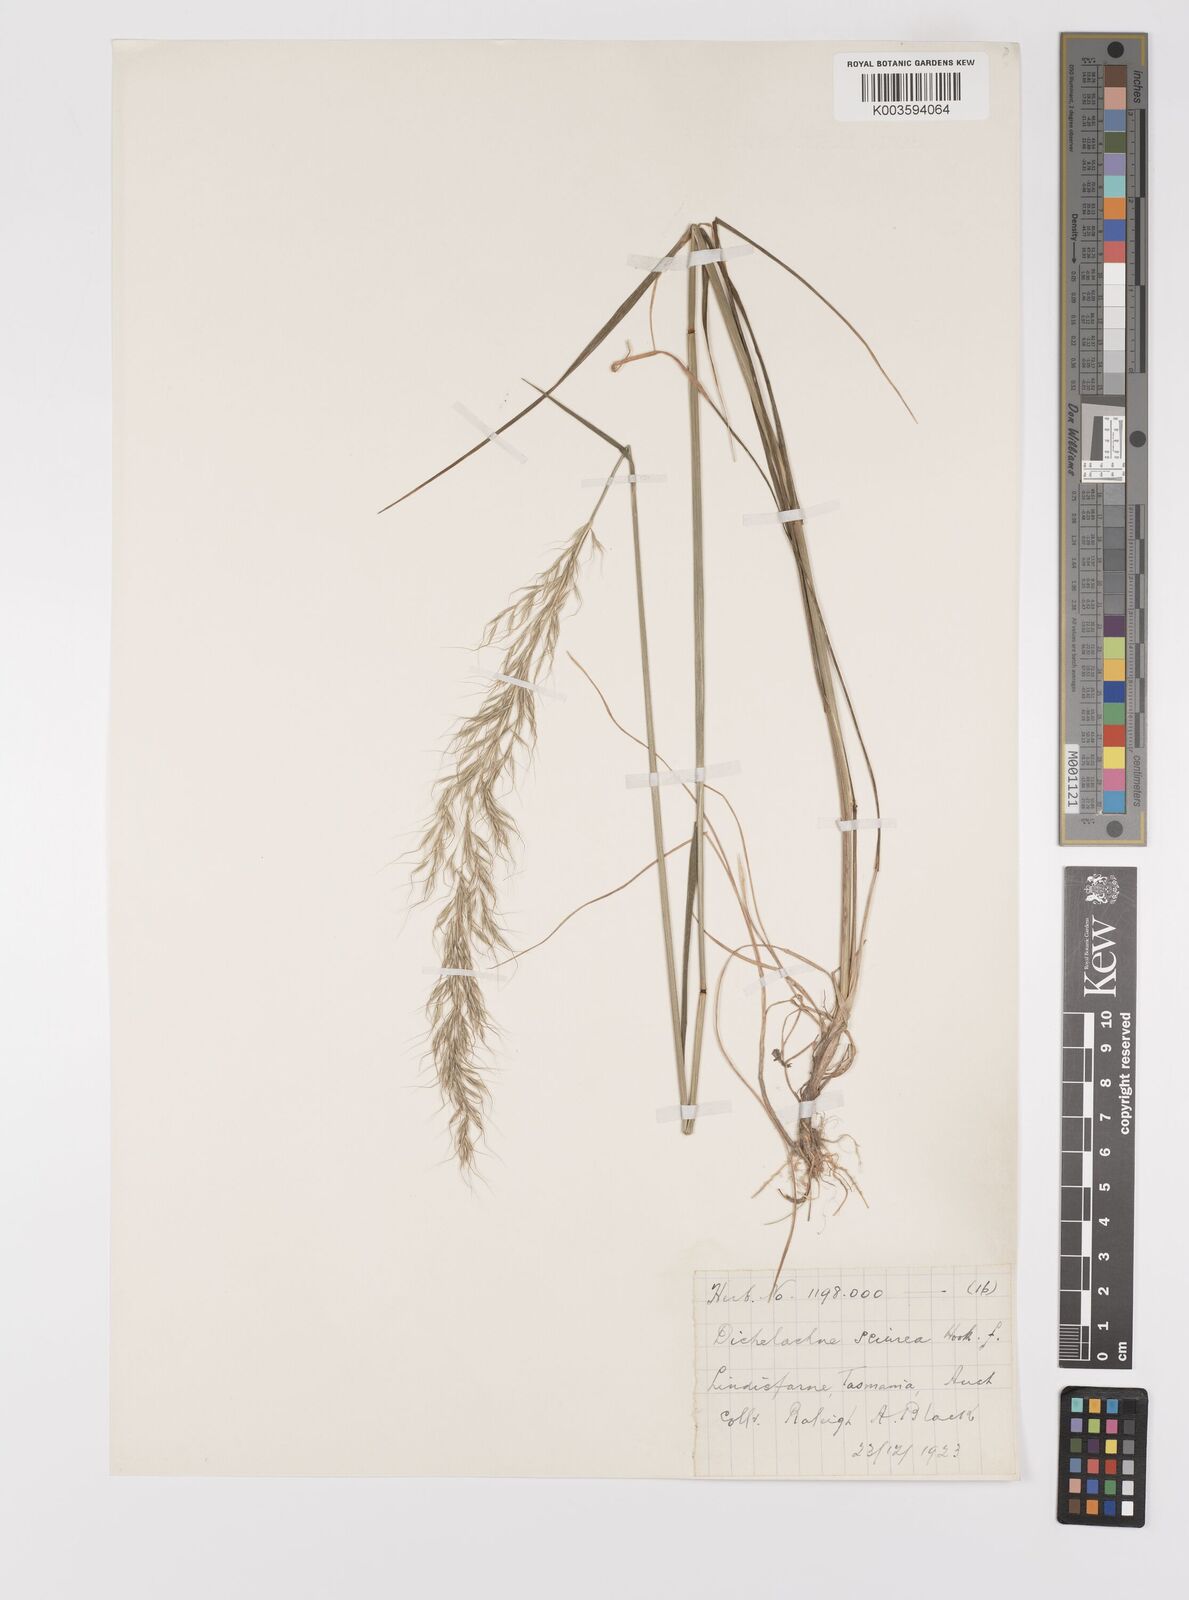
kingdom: Plantae
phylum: Tracheophyta
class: Liliopsida
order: Poales
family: Poaceae
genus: Dichelachne
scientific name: Dichelachne rara
